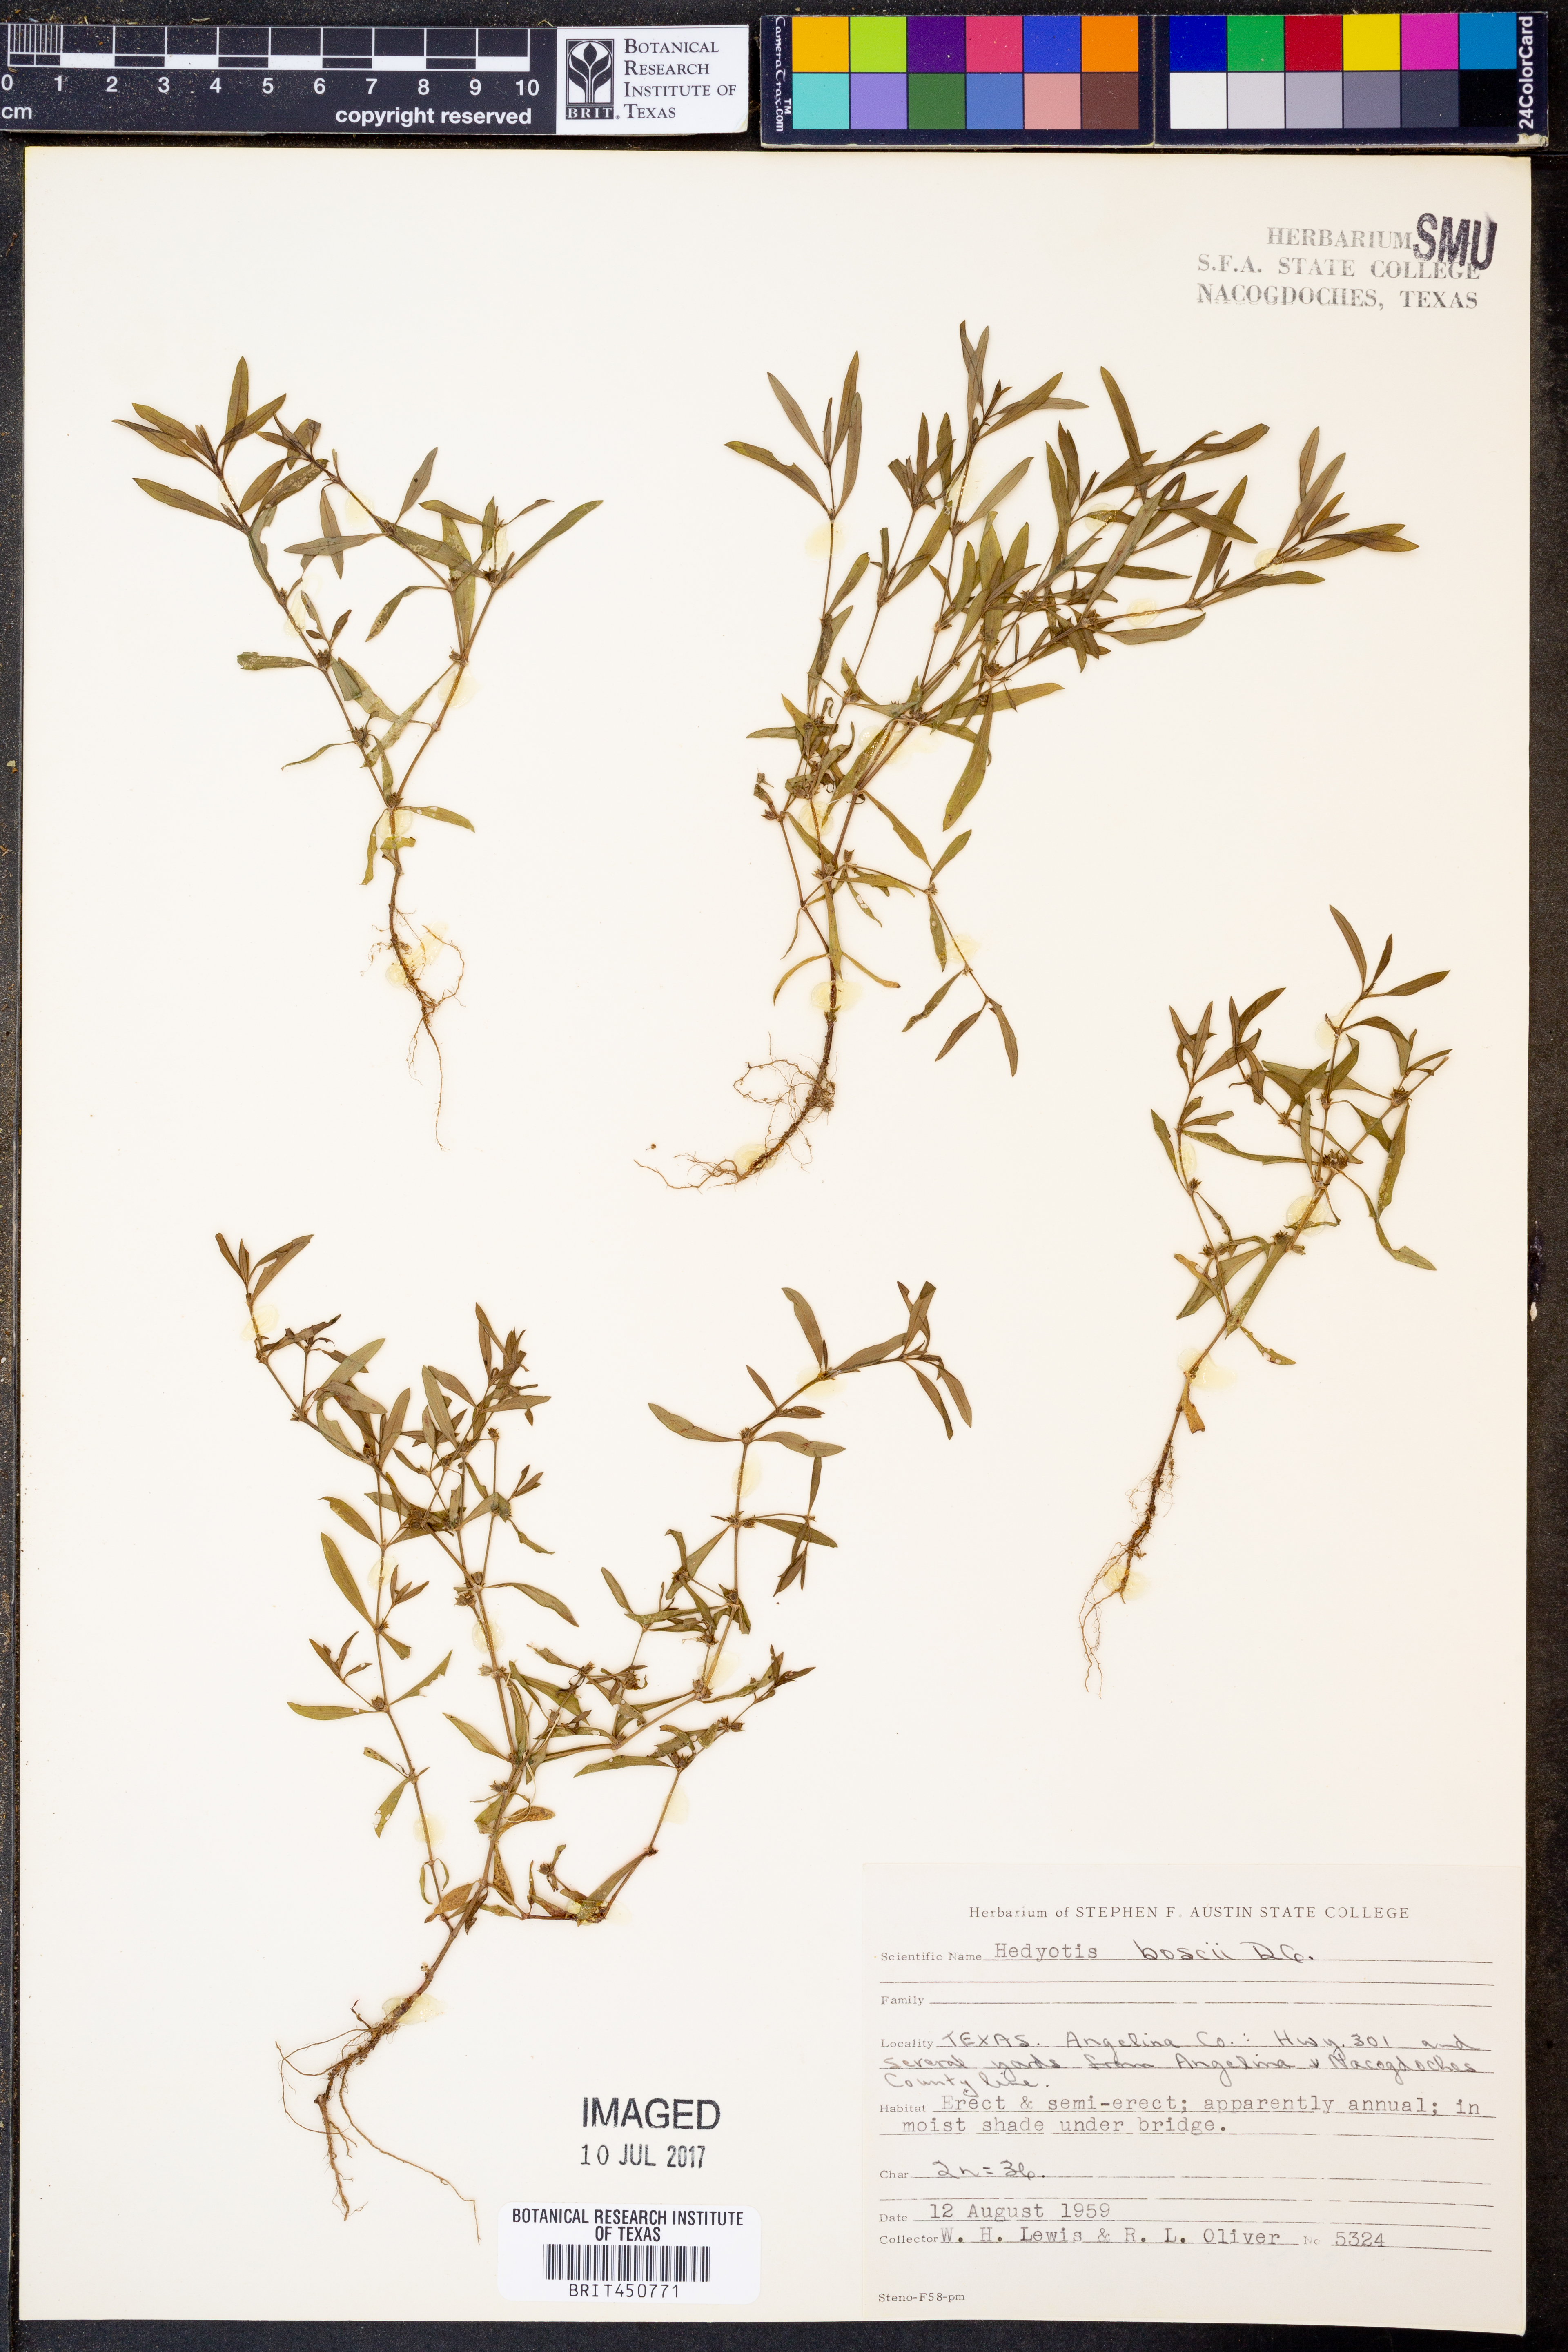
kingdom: Plantae
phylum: Tracheophyta
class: Magnoliopsida
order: Gentianales
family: Rubiaceae
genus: Oldenlandia
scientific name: Oldenlandia boscii
